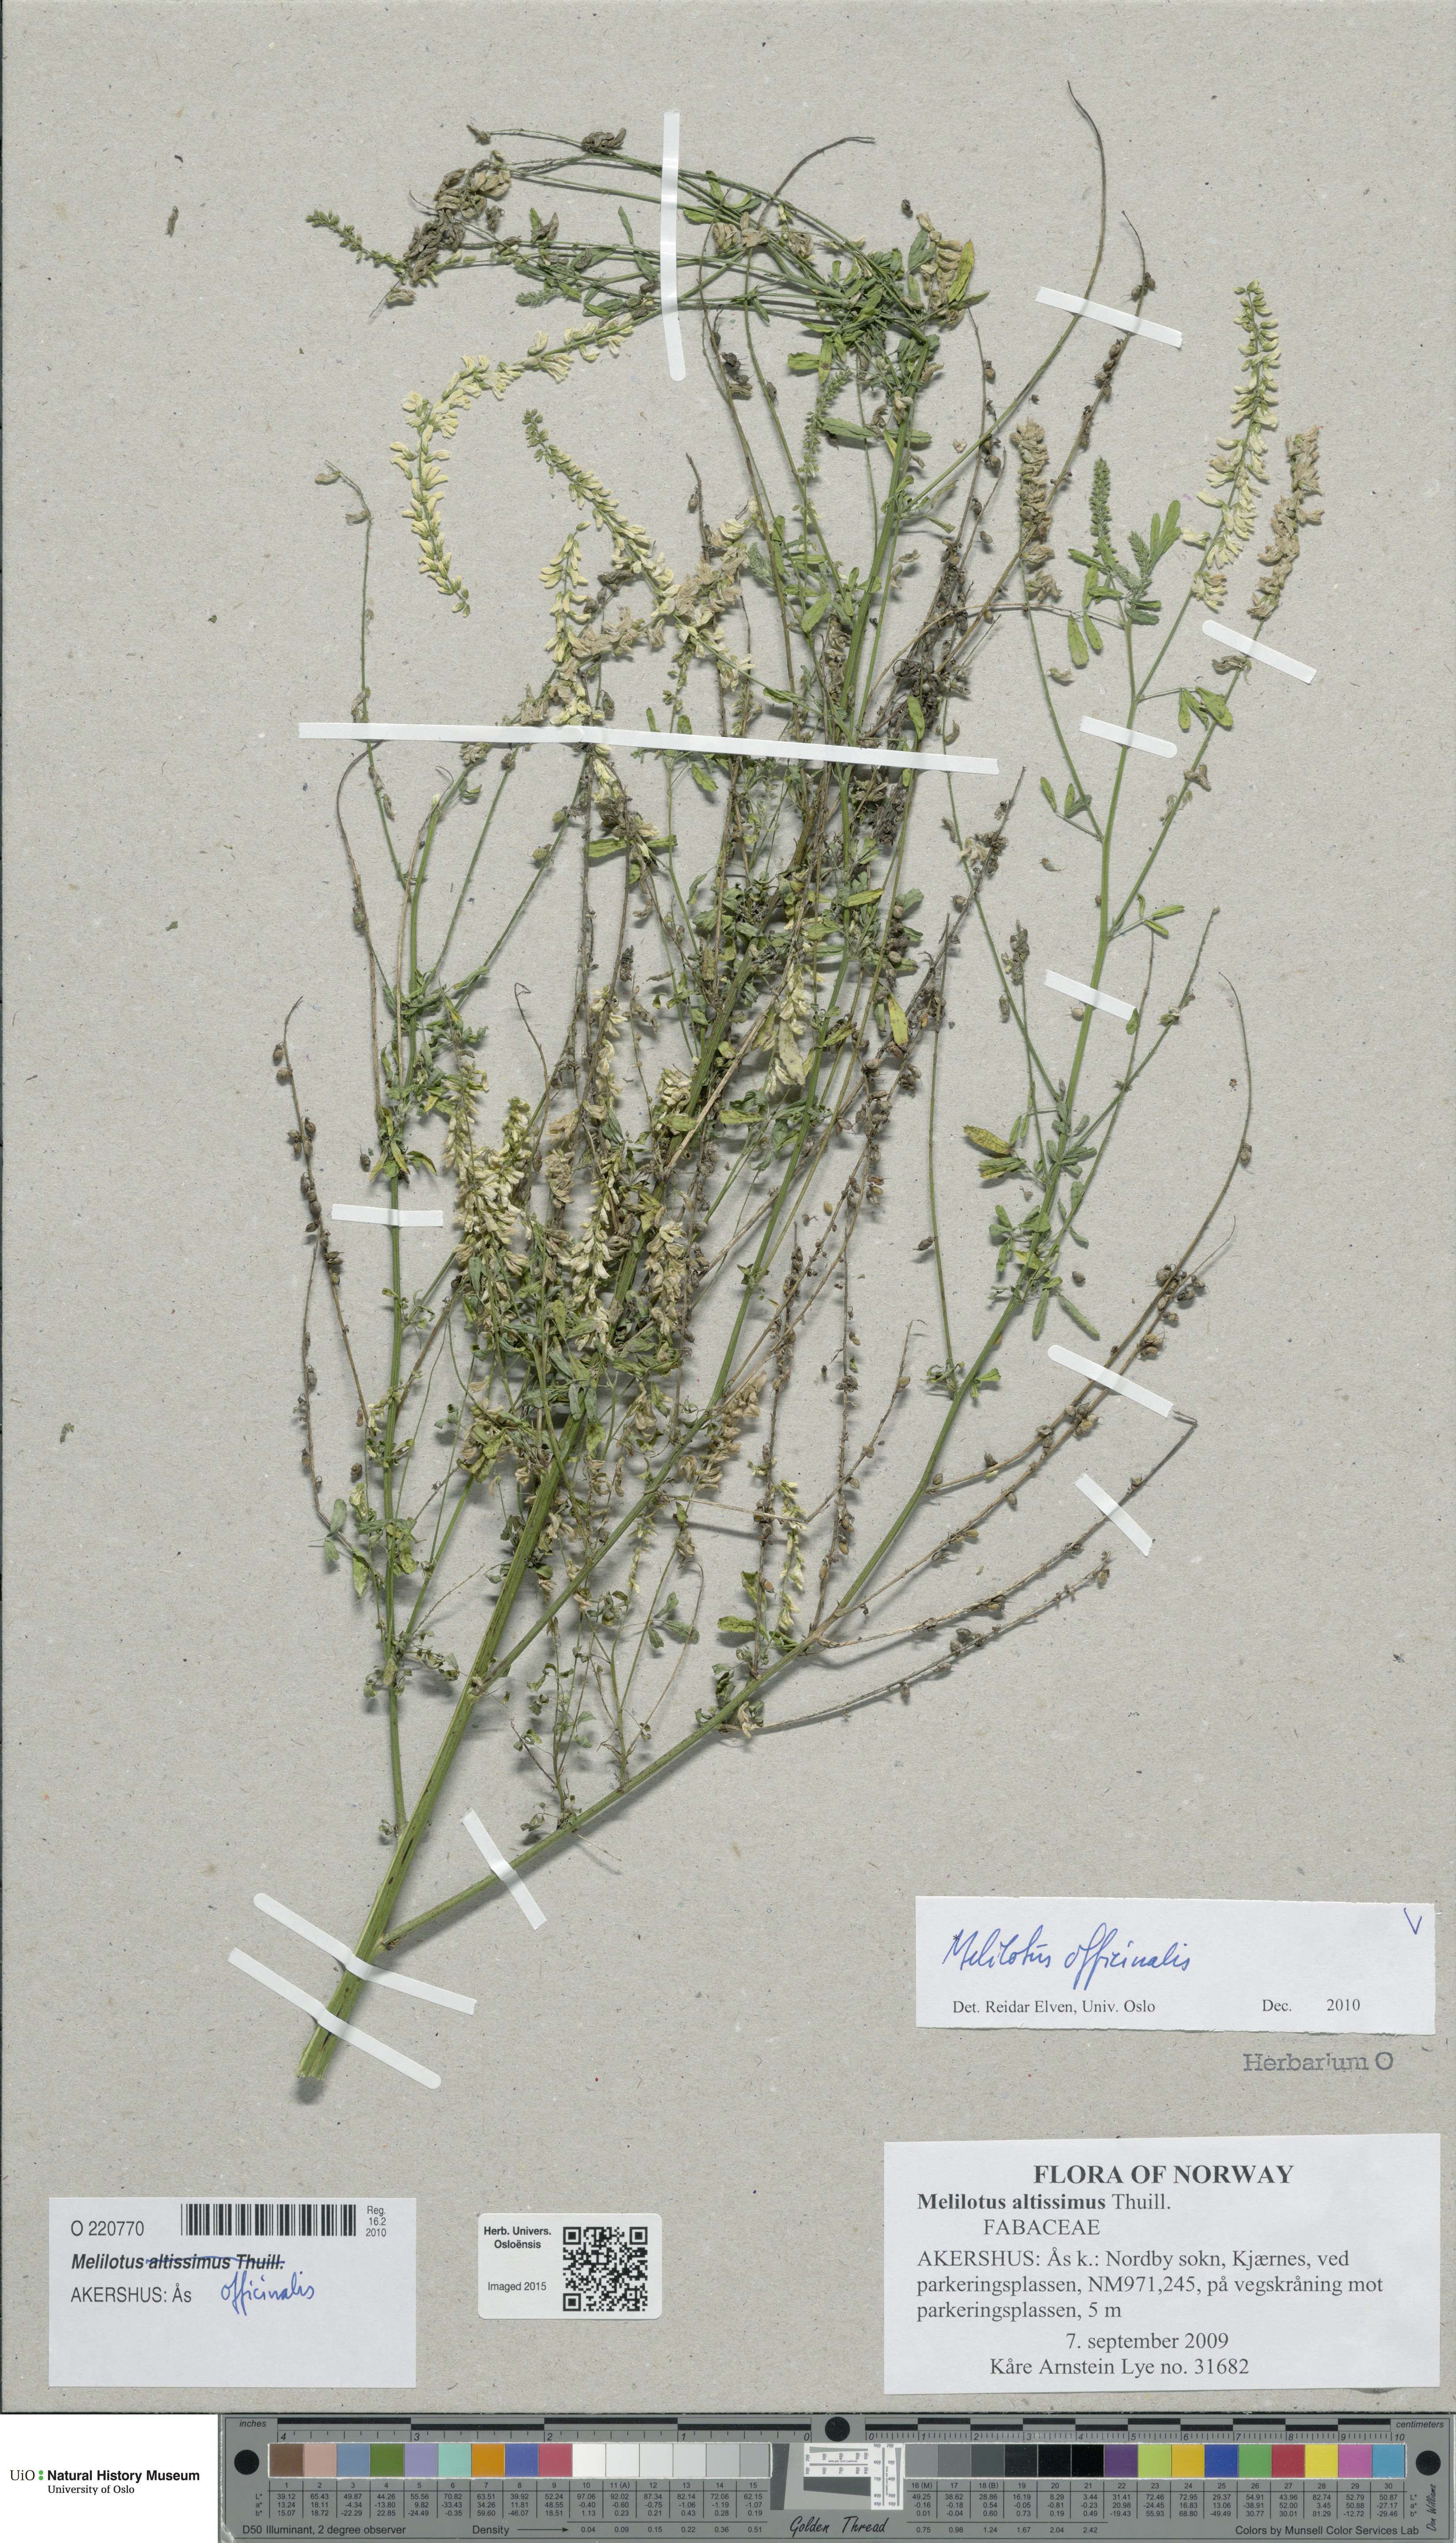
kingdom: Plantae
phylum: Tracheophyta
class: Magnoliopsida
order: Fabales
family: Fabaceae
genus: Melilotus
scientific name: Melilotus officinalis
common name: Sweetclover
